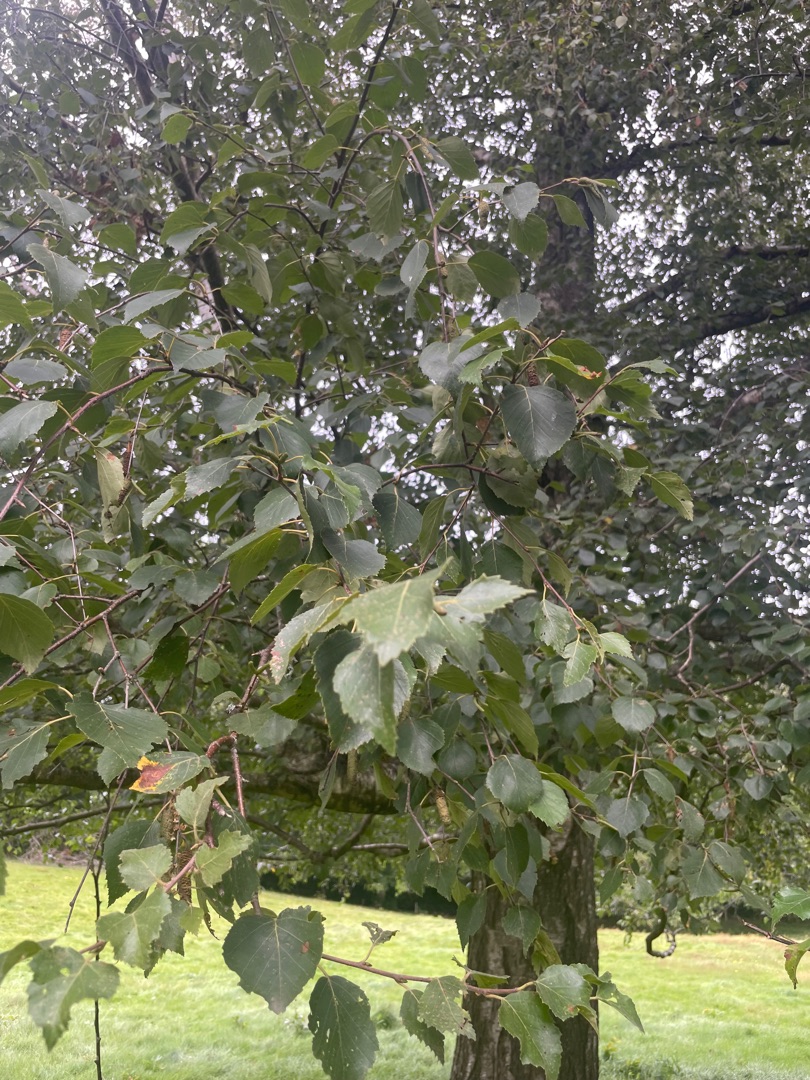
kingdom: Plantae
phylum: Tracheophyta
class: Magnoliopsida
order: Fagales
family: Betulaceae
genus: Betula
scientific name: Betula pendula
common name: Vorte-birk
